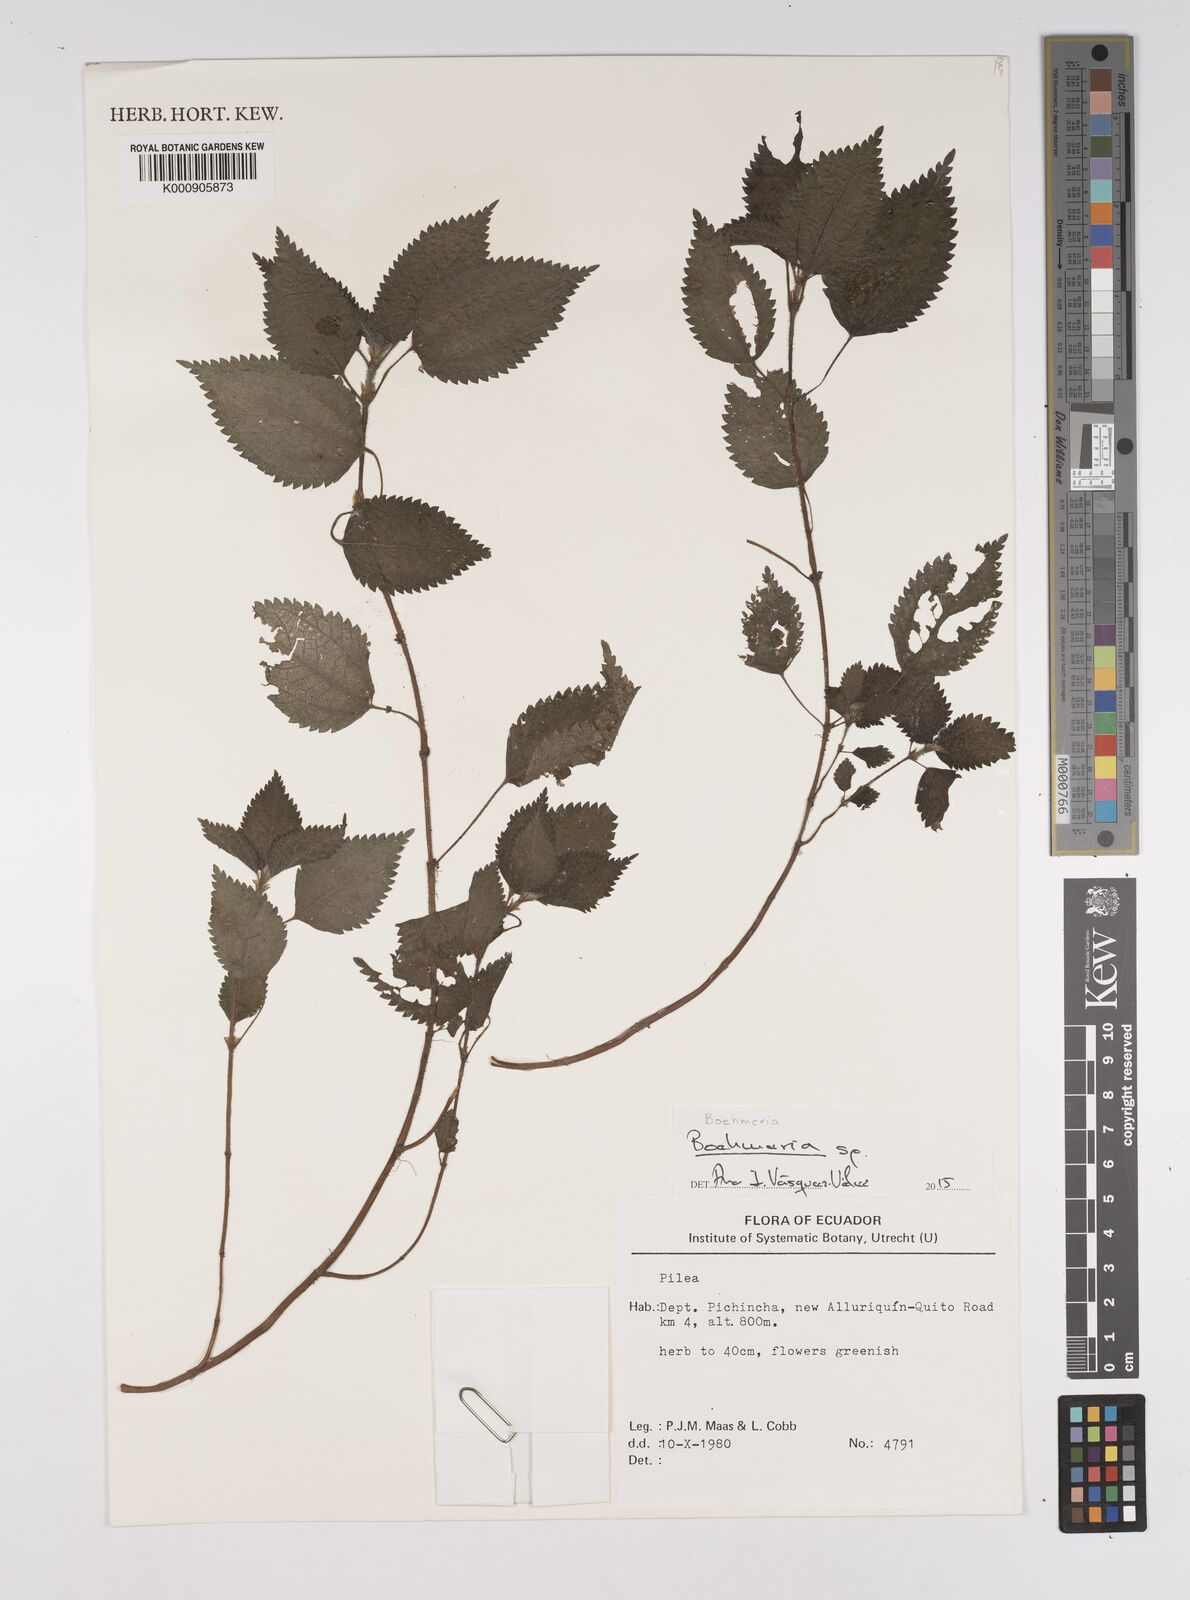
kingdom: Plantae
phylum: Tracheophyta
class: Magnoliopsida
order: Rosales
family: Urticaceae
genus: Boehmeria
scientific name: Boehmeria
